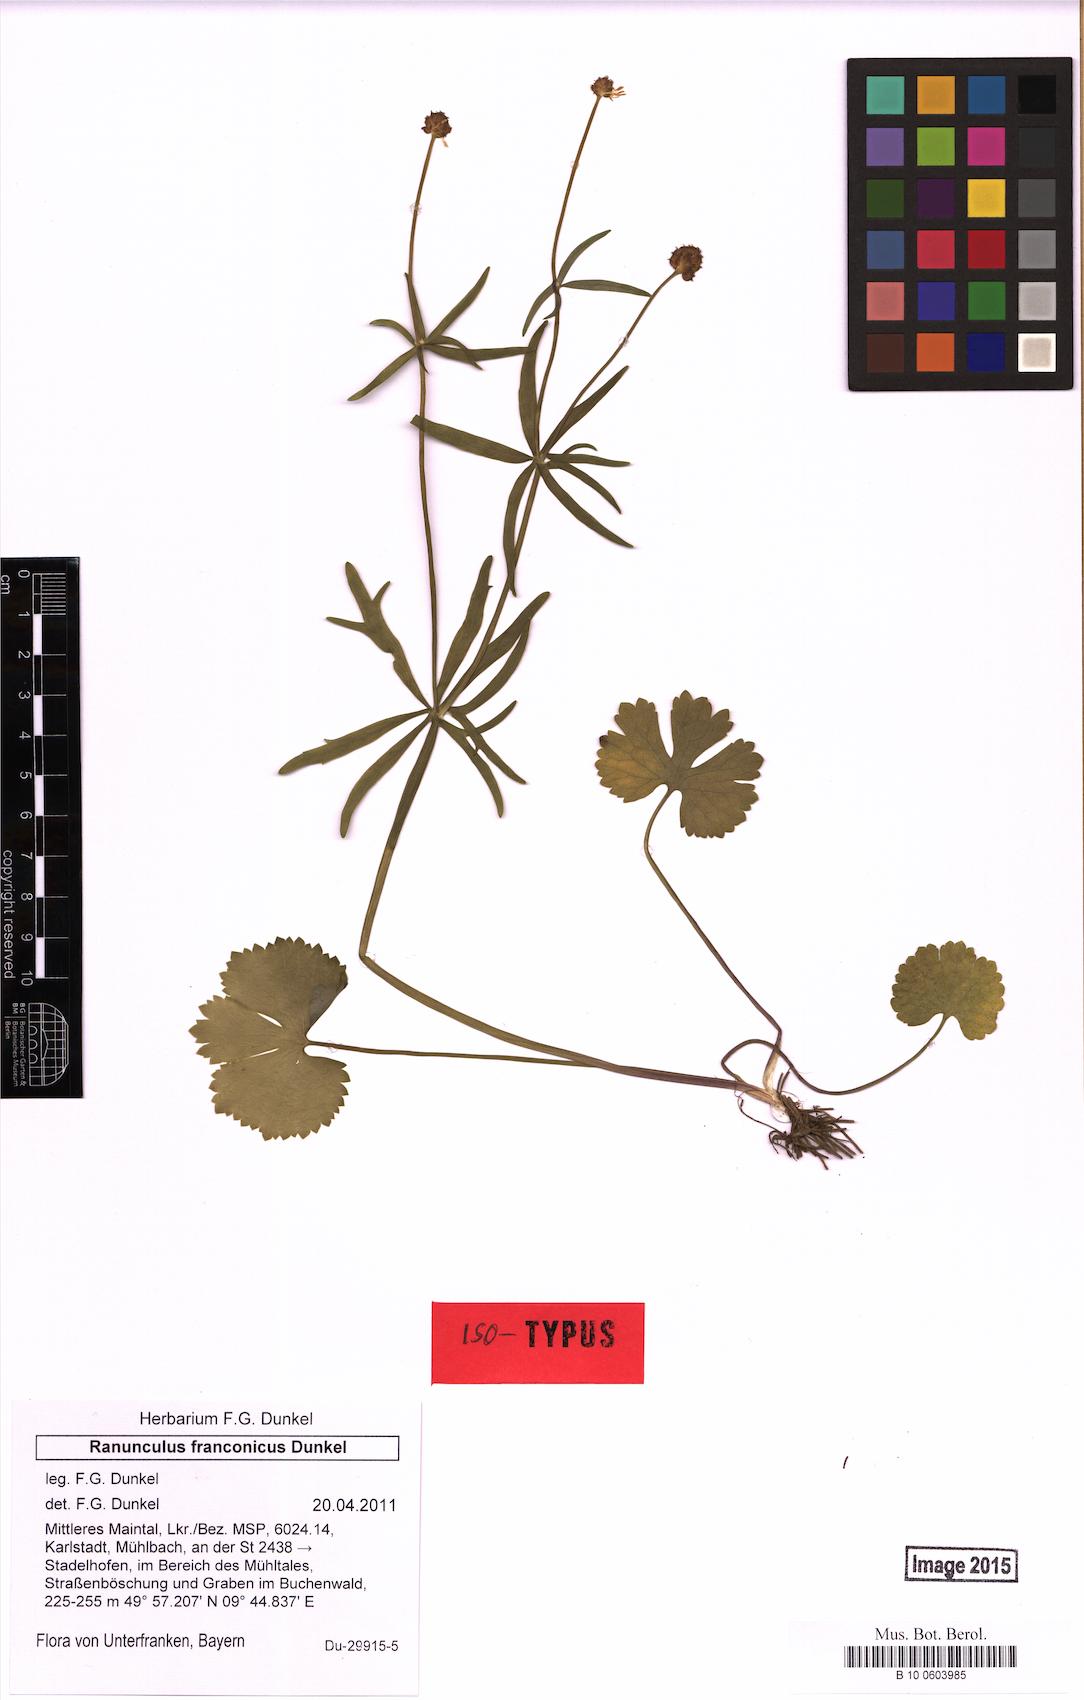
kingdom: Plantae
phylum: Tracheophyta
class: Magnoliopsida
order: Ranunculales
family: Ranunculaceae
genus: Ranunculus
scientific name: Ranunculus franconicus
